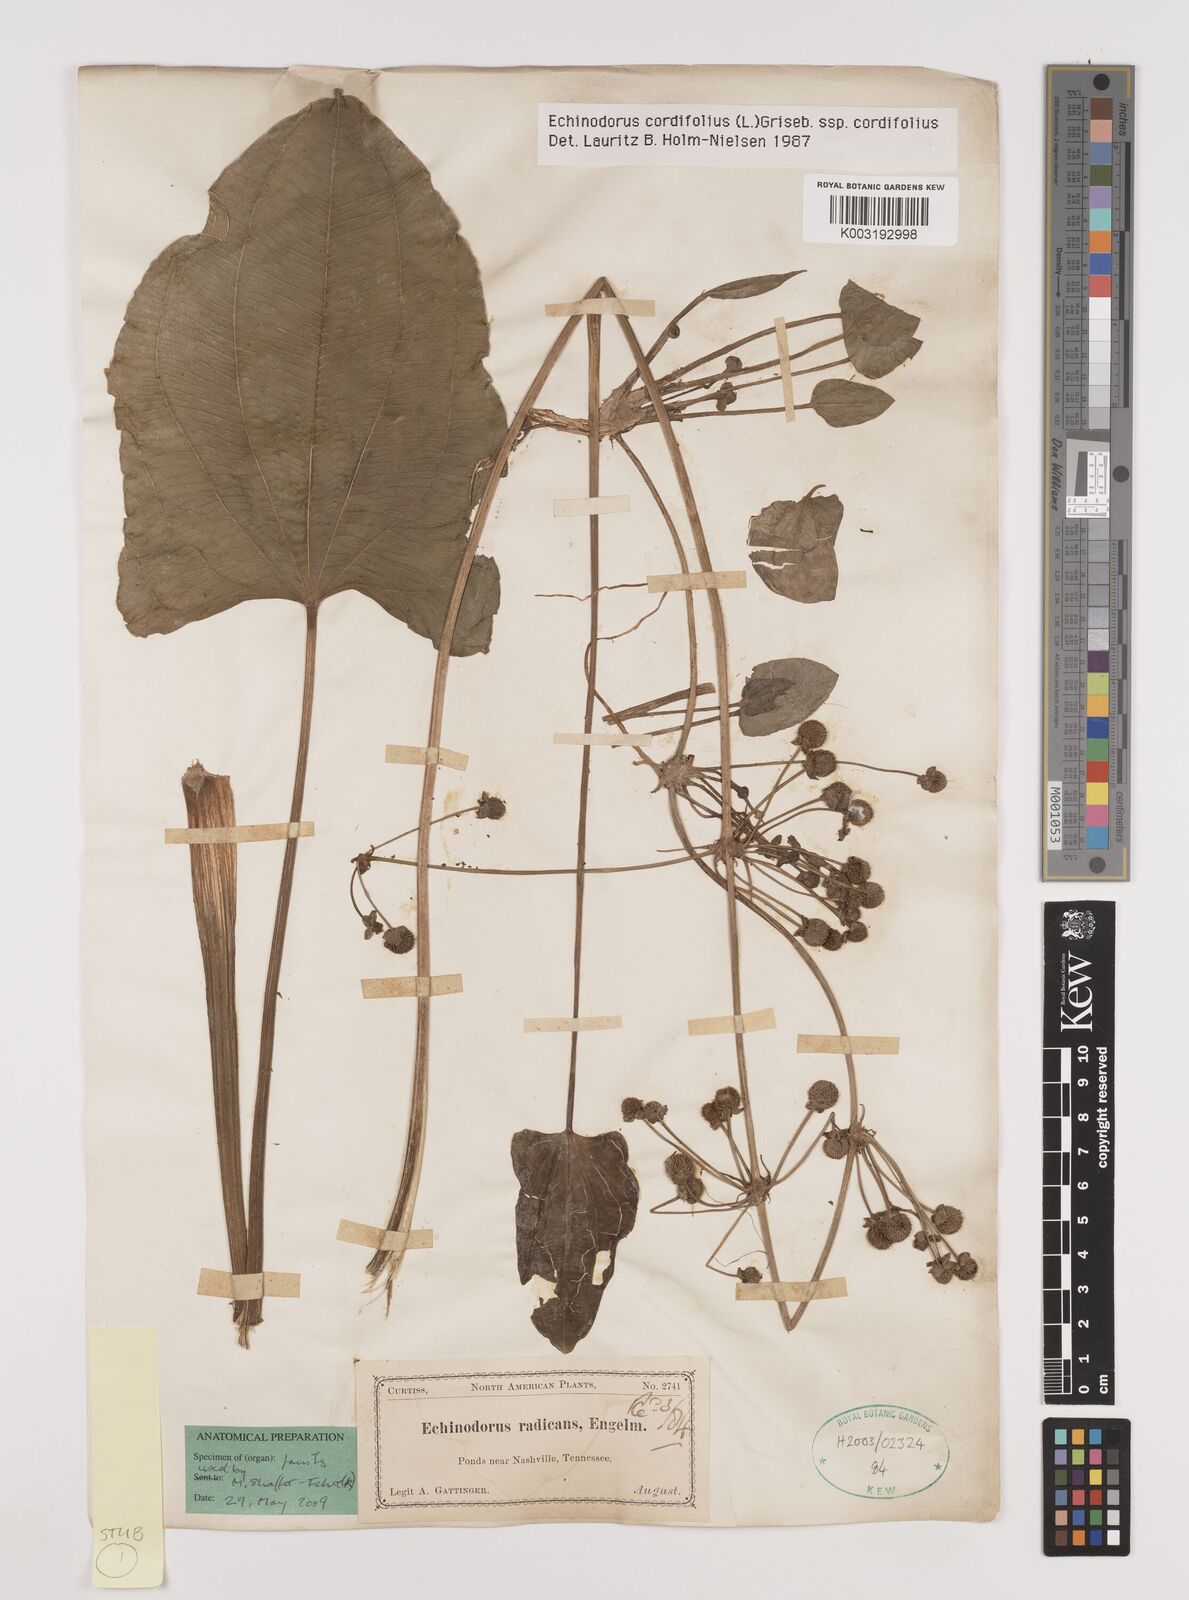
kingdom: Plantae
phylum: Tracheophyta
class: Liliopsida
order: Alismatales
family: Alismataceae
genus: Aquarius
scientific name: Aquarius cordifolius
